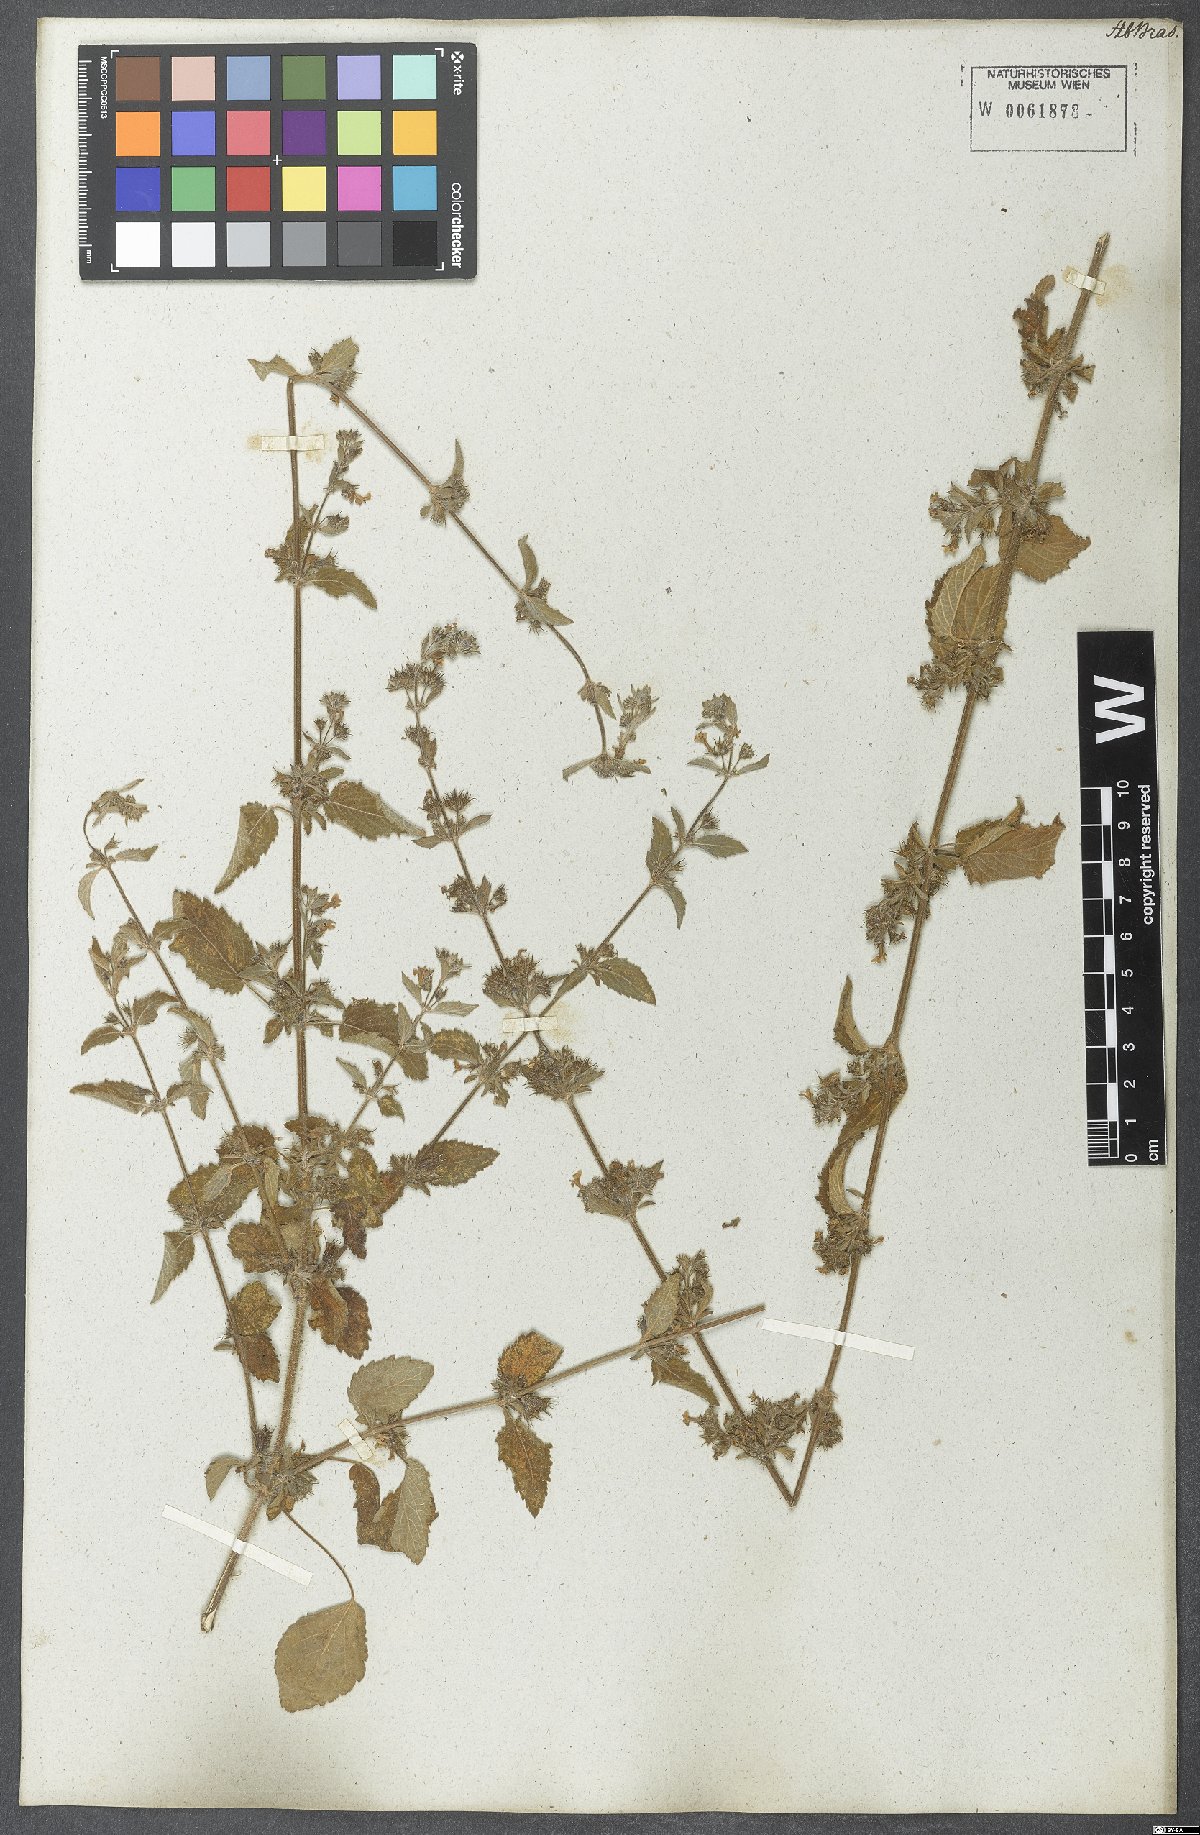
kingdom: Plantae
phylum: Tracheophyta
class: Magnoliopsida
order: Lamiales
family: Lamiaceae
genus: Mesosphaerum
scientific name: Mesosphaerum suaveolens
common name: Pignut
